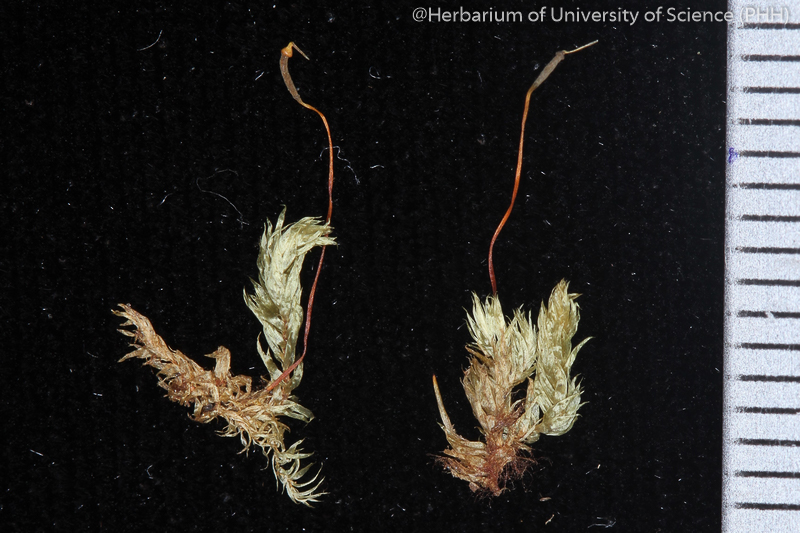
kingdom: Plantae
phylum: Bryophyta
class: Bryopsida
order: Hypnales
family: Sematophyllaceae
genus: Chionostomum
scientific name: Chionostomum rostratum
